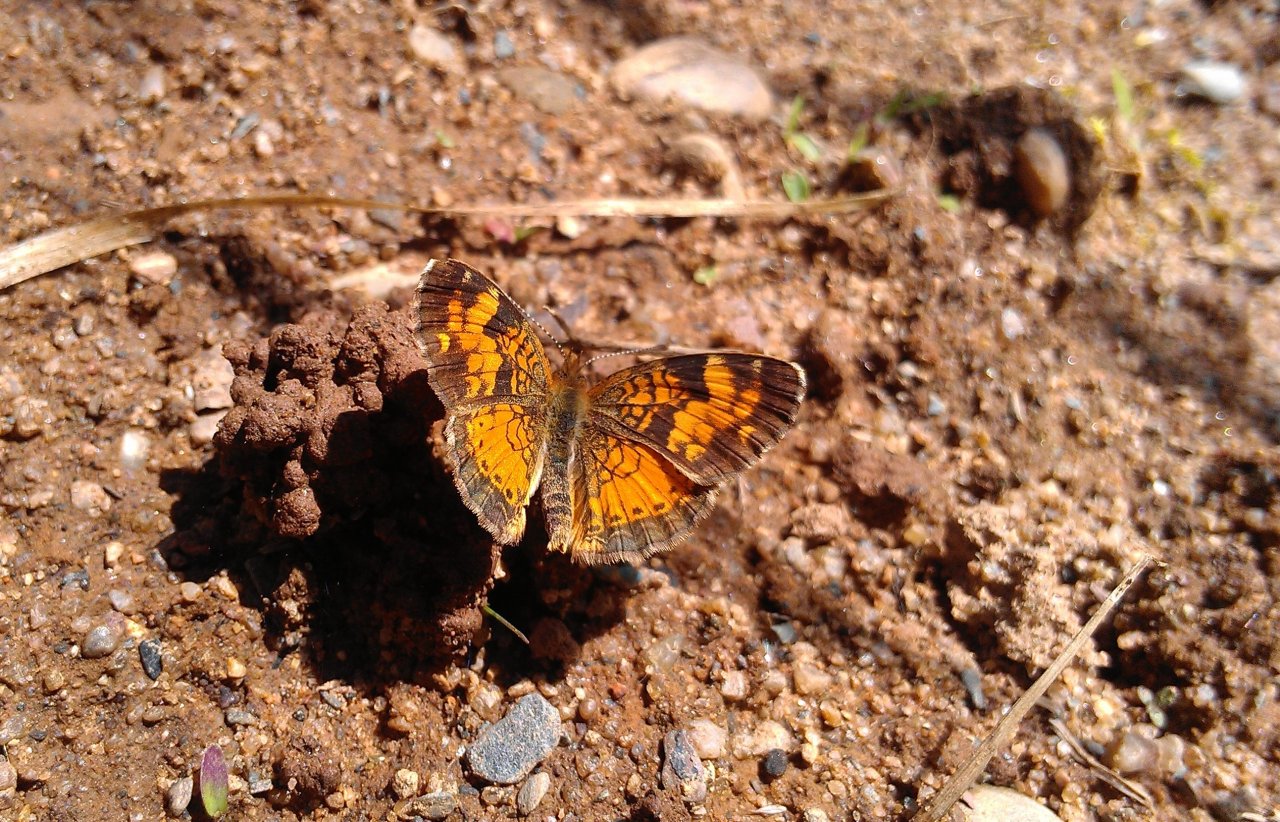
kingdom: Animalia
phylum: Arthropoda
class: Insecta
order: Lepidoptera
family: Nymphalidae
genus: Phyciodes
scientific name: Phyciodes tharos
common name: Northern Crescent
